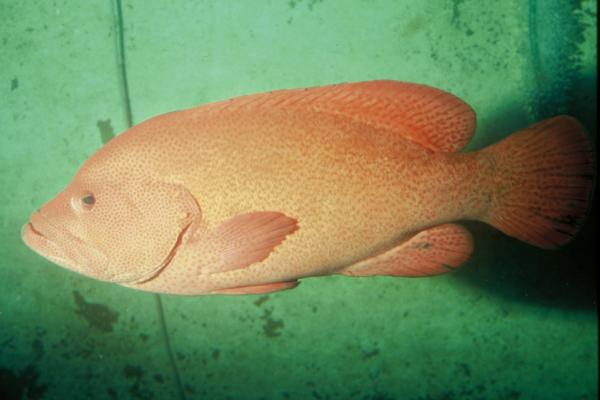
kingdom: Animalia
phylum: Chordata
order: Perciformes
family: Serranidae
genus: Cephalopholis
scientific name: Cephalopholis sonnerati
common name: Tomato hind
